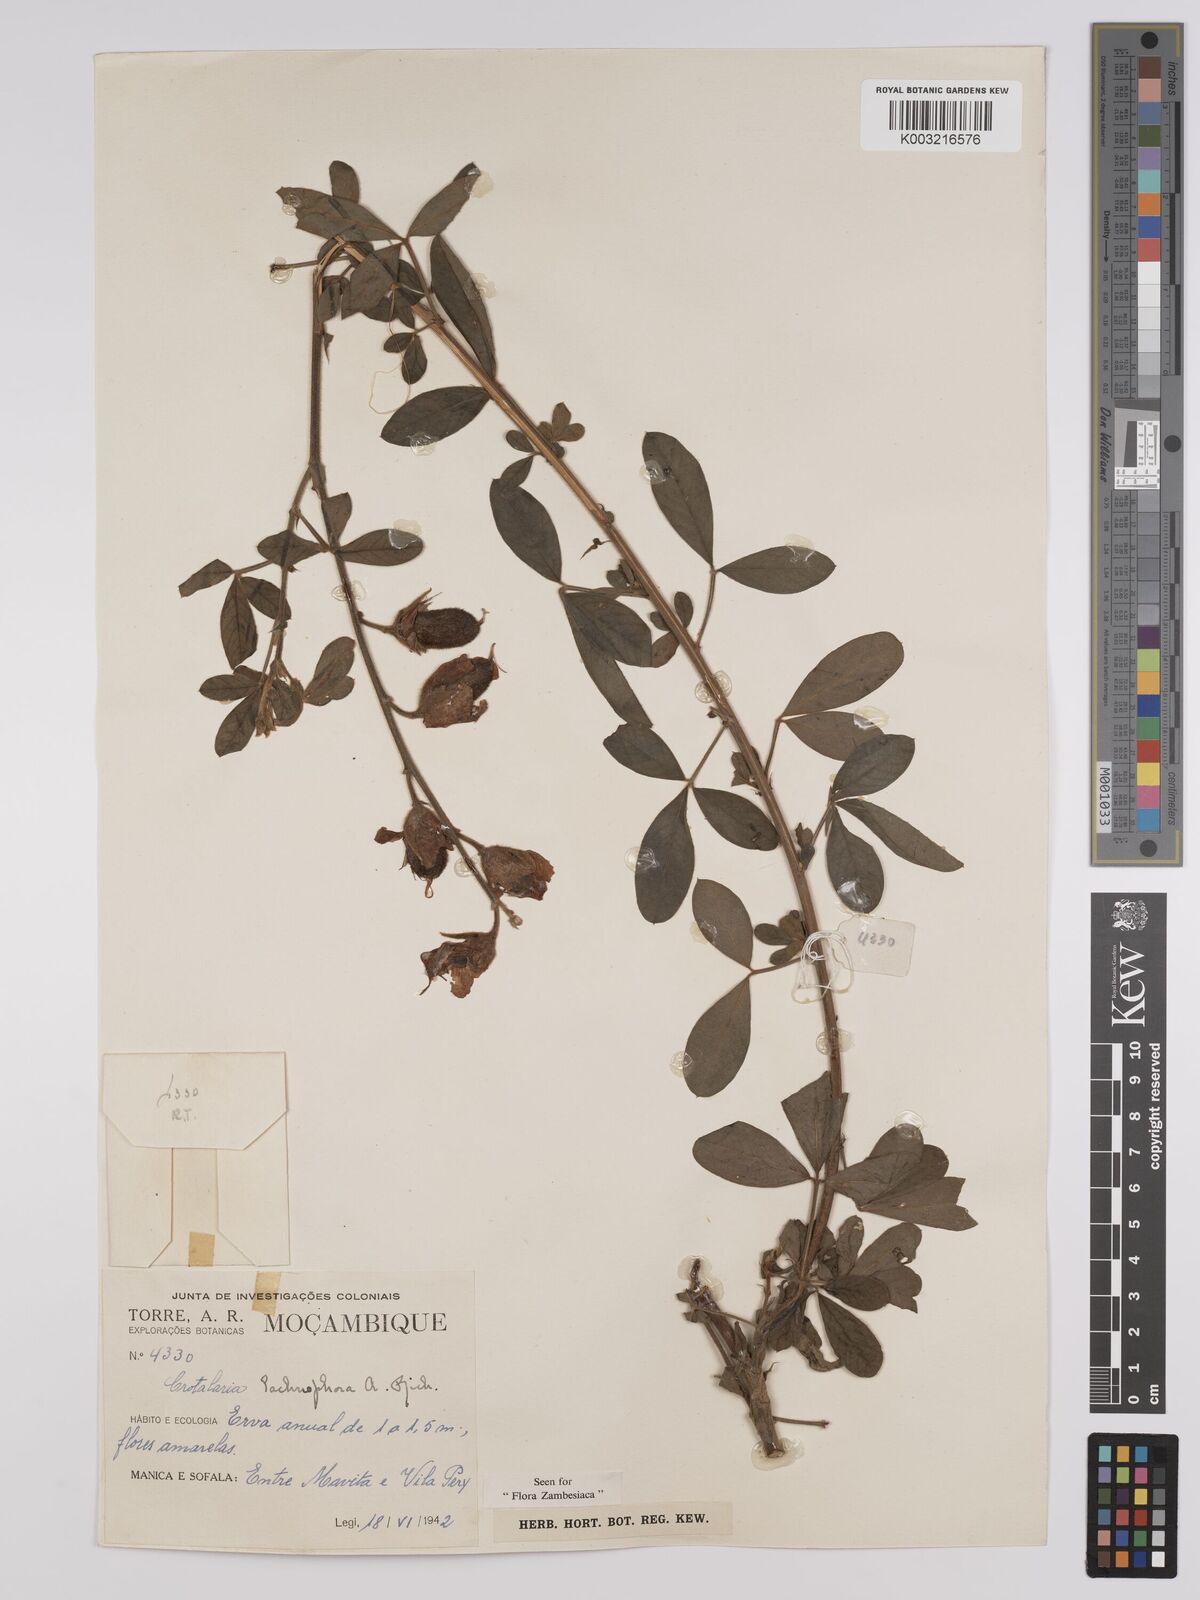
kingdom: Plantae
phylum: Tracheophyta
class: Magnoliopsida
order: Fabales
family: Fabaceae
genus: Crotalaria
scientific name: Crotalaria lachnophora
